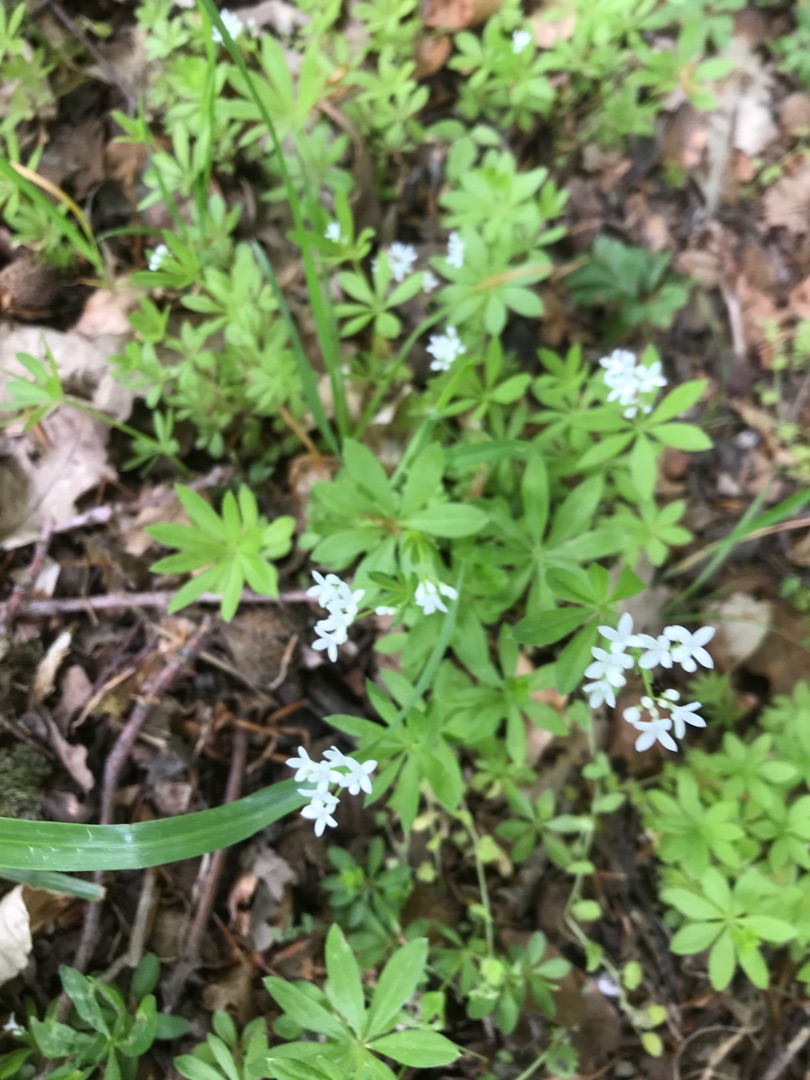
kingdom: Plantae
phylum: Tracheophyta
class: Magnoliopsida
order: Gentianales
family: Rubiaceae
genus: Galium
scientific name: Galium odoratum
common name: Skovmærke
